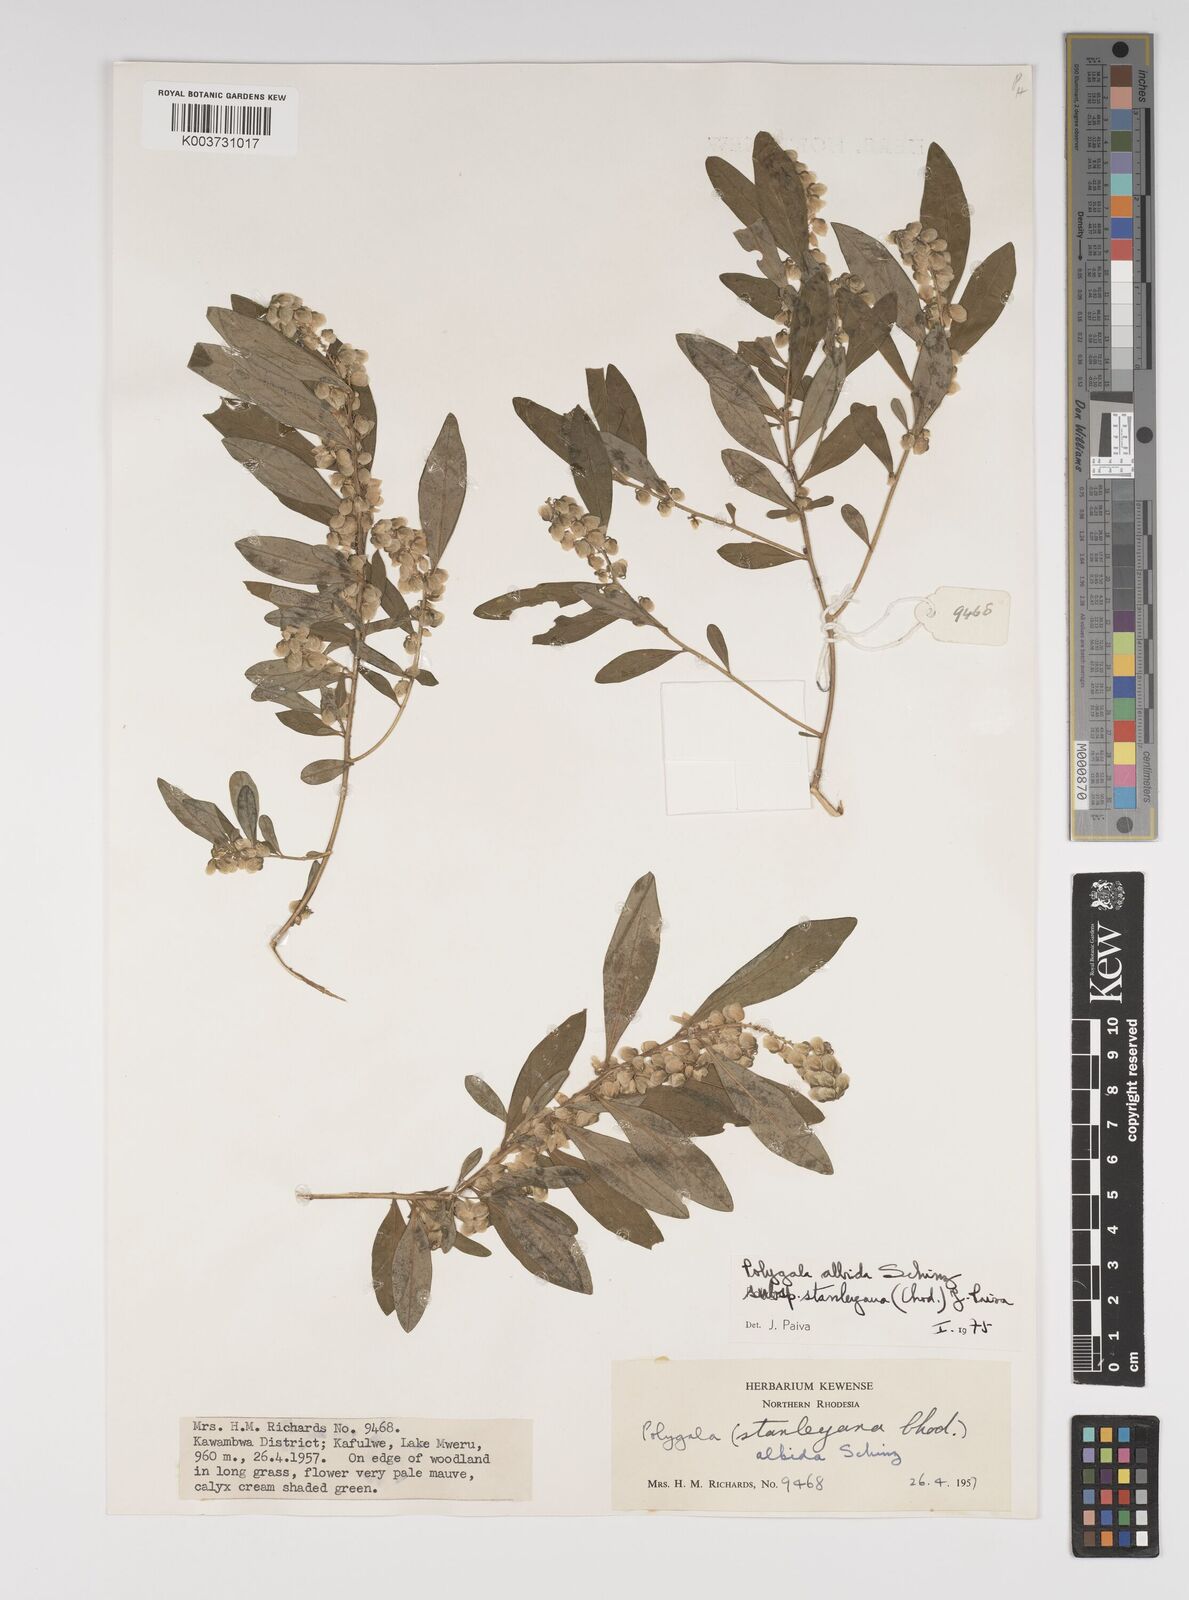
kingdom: Plantae
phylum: Tracheophyta
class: Magnoliopsida
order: Fabales
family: Polygalaceae
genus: Polygala
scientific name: Polygala albida
